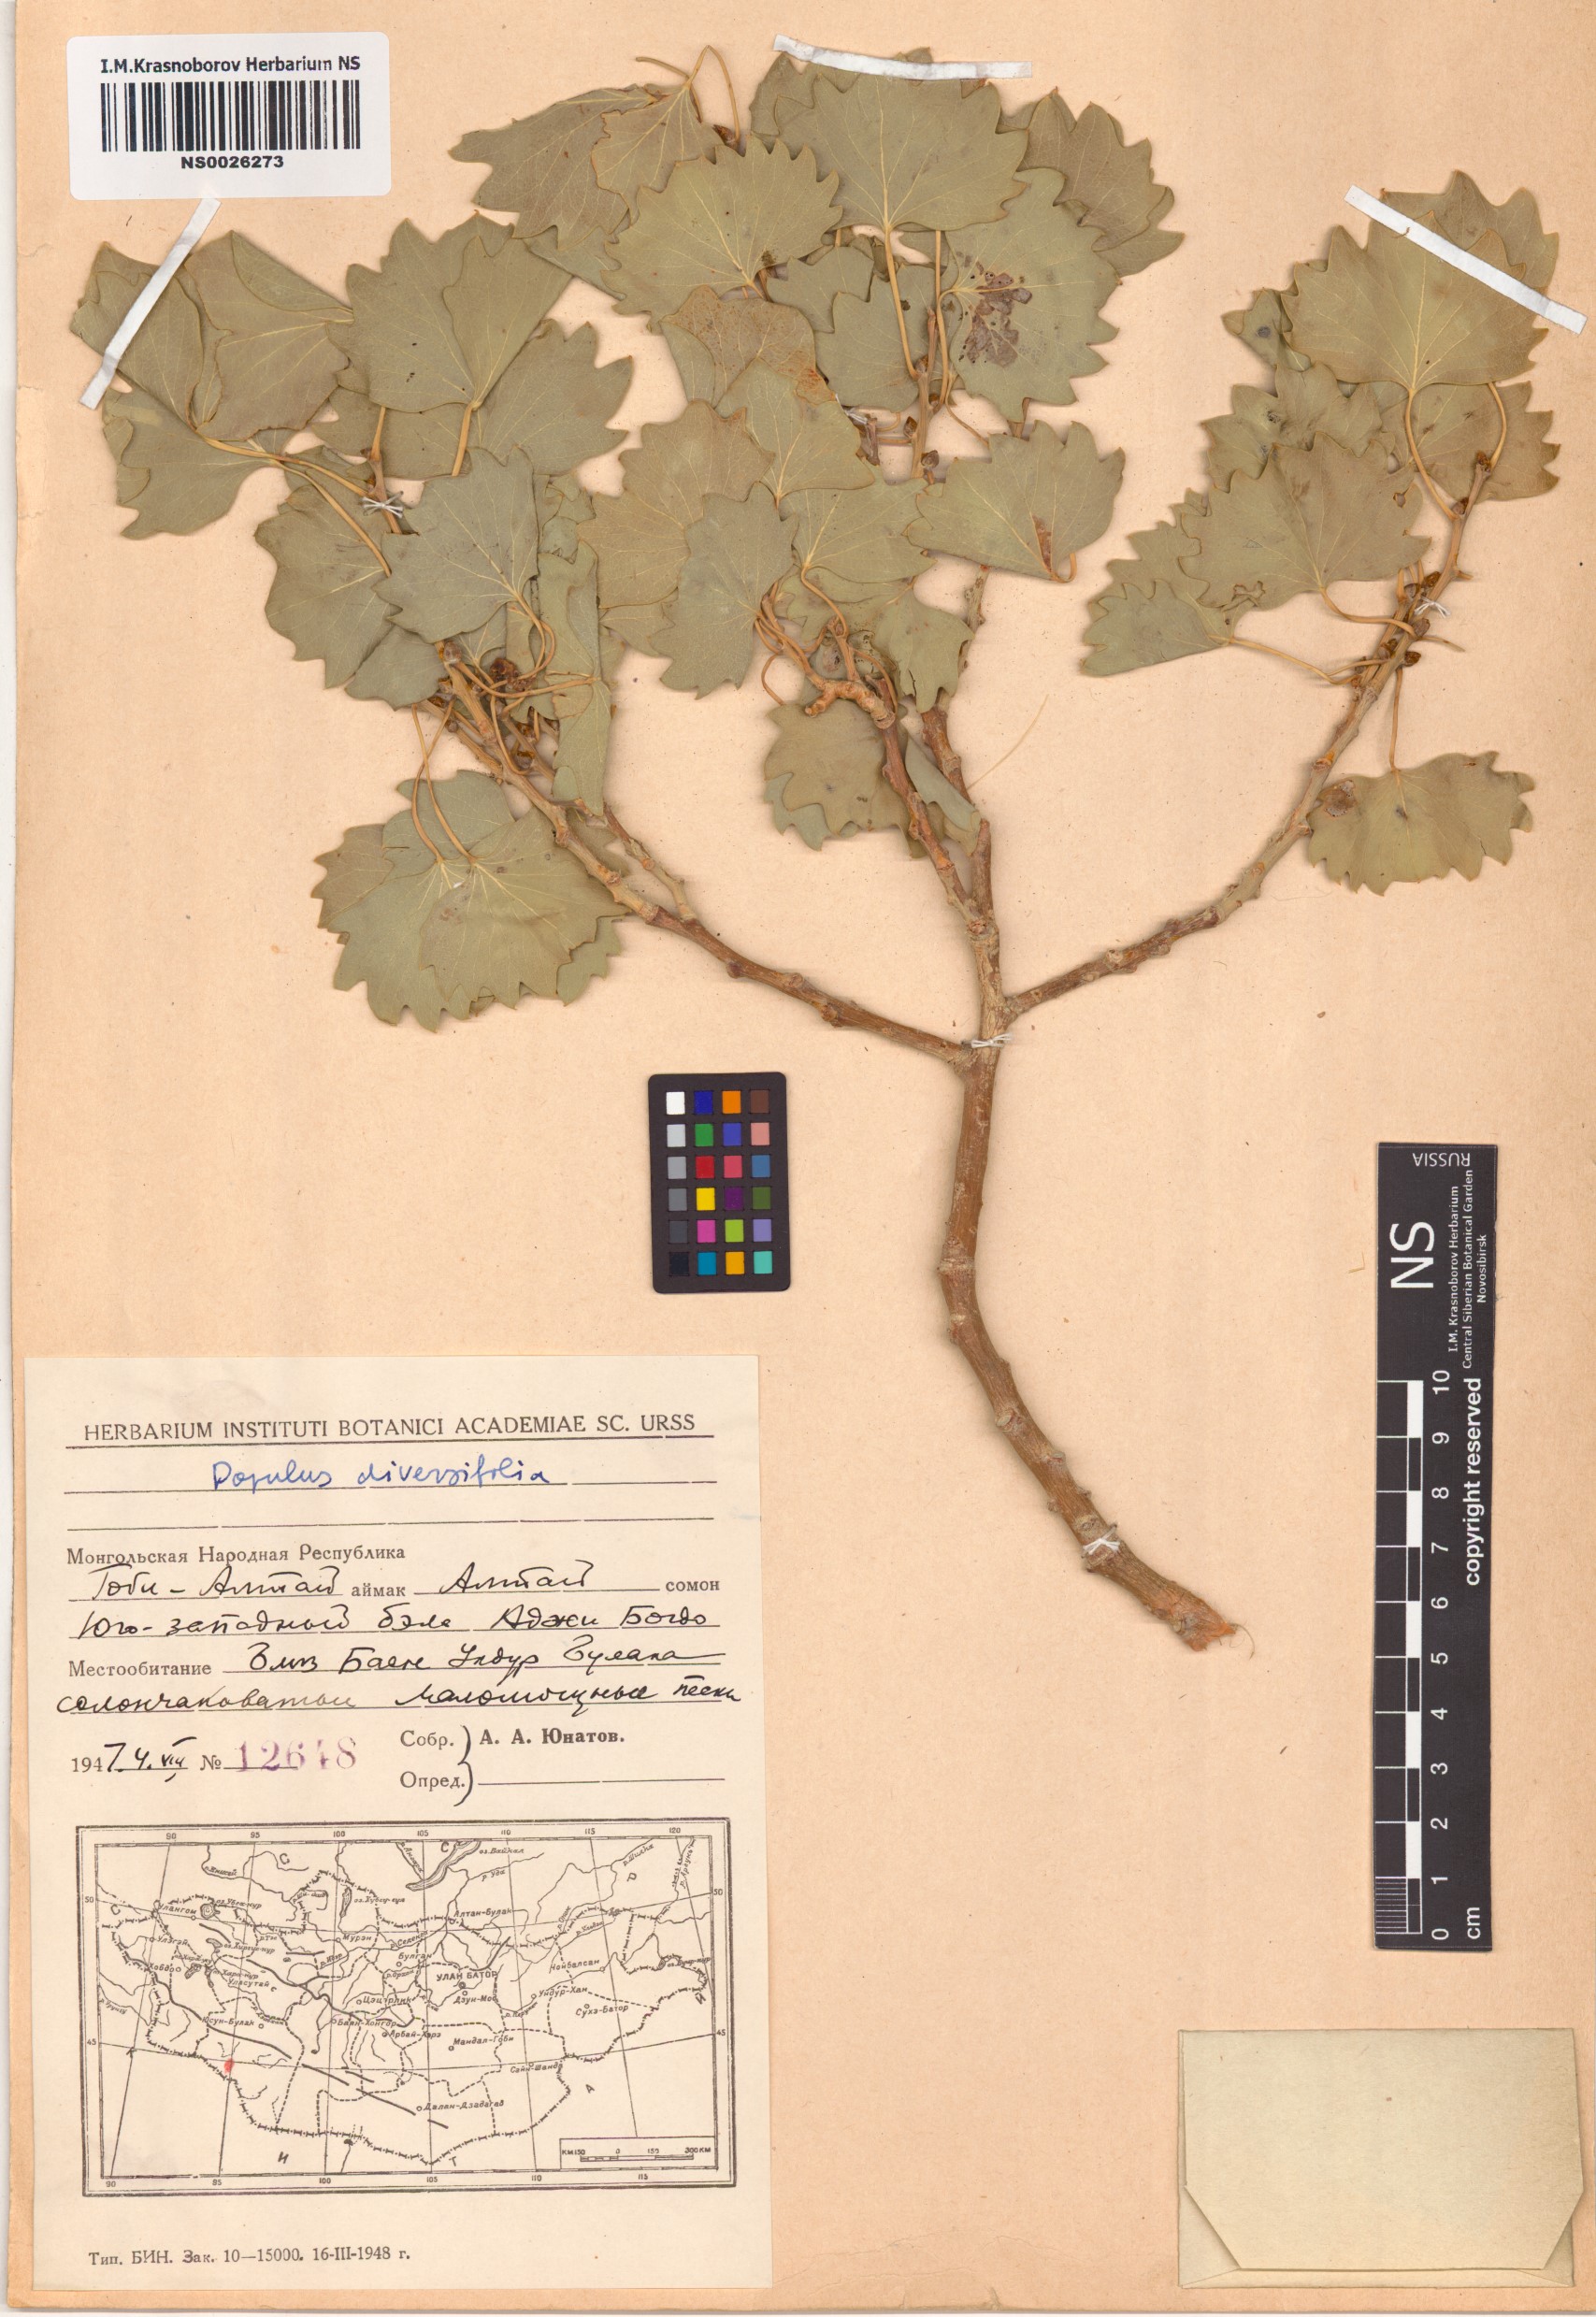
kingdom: Plantae
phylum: Tracheophyta
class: Magnoliopsida
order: Malpighiales
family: Salicaceae
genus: Populus
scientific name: Populus euphratica
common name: Euphrates poplar
